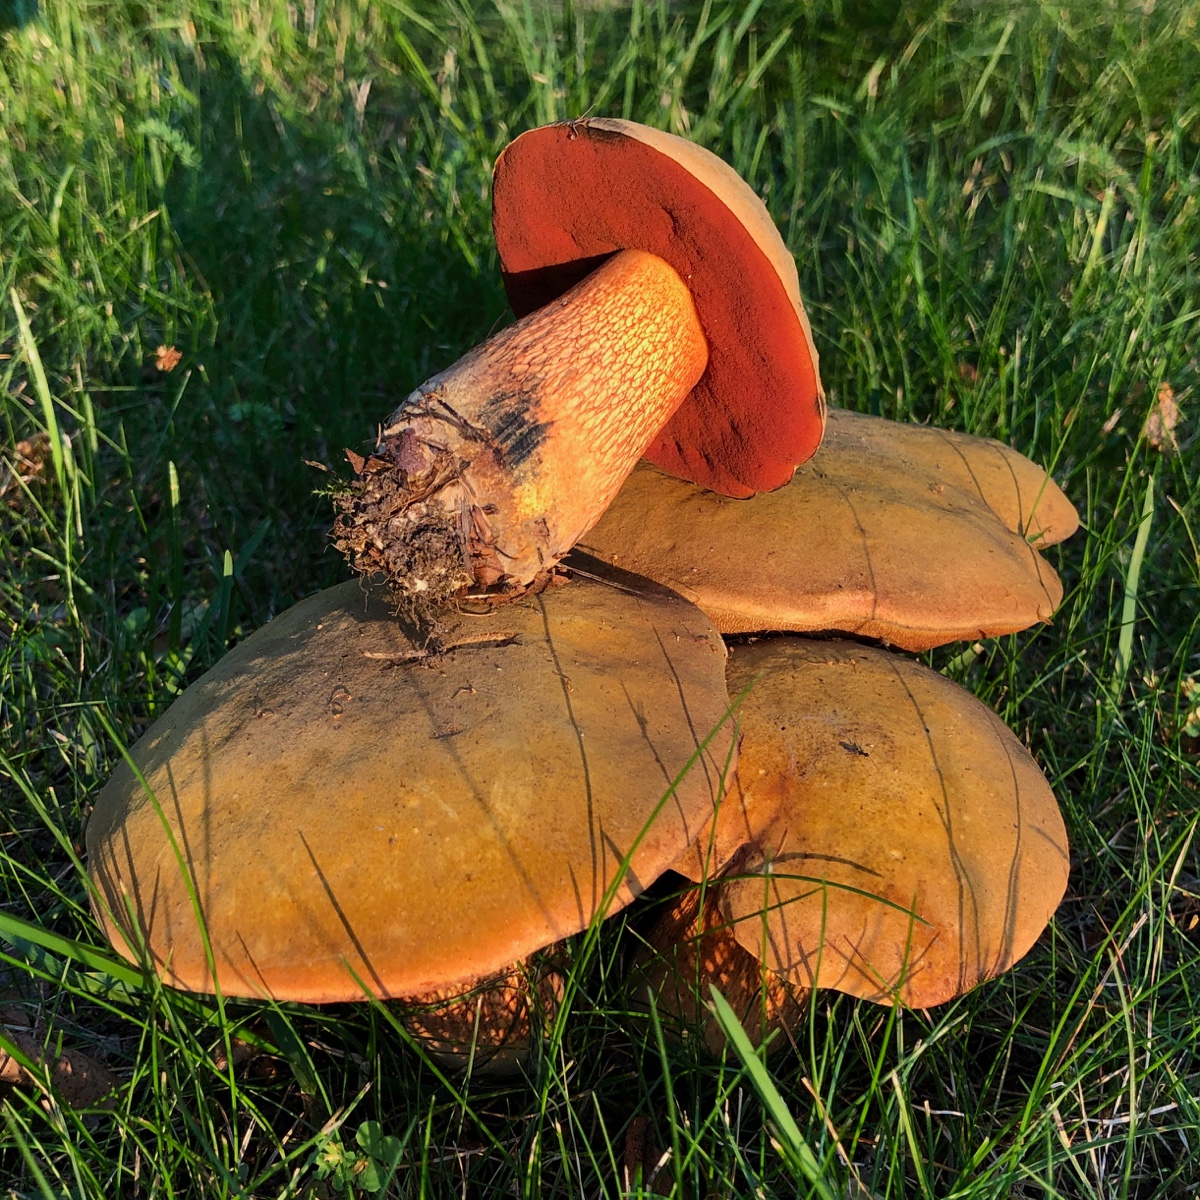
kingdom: Fungi
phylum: Basidiomycota
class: Agaricomycetes
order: Boletales
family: Boletaceae
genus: Suillellus
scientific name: Suillellus luridus
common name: netstokket indigorørhat
